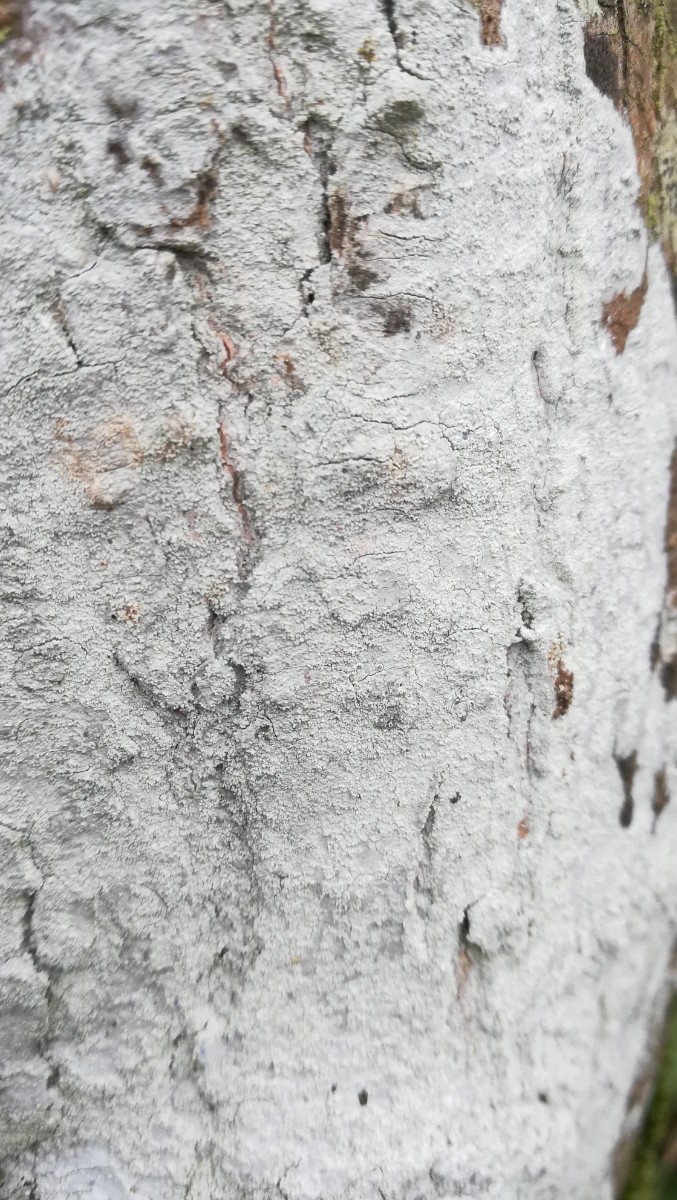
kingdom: Fungi
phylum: Ascomycota
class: Lecanoromycetes
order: Ostropales
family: Phlyctidaceae
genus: Phlyctis
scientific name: Phlyctis argena
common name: almindelig sølvlav
